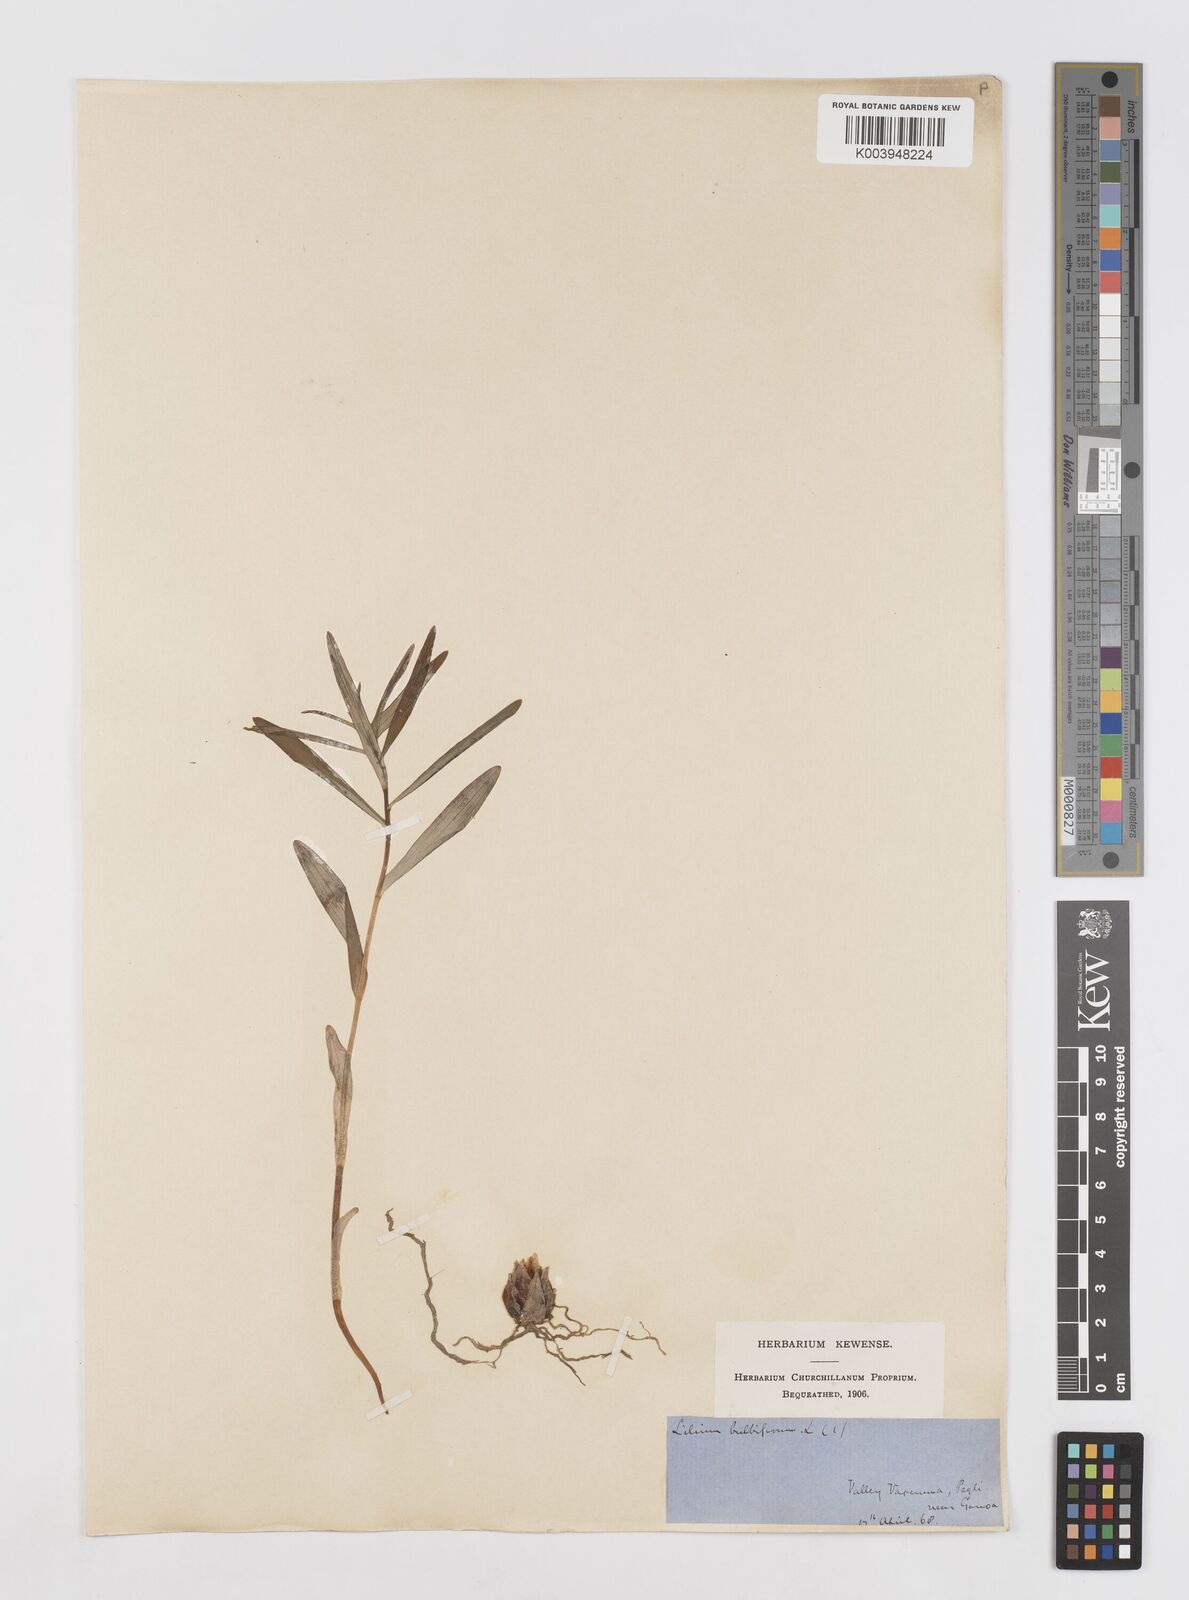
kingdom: Plantae
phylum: Tracheophyta
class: Liliopsida
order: Liliales
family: Liliaceae
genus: Lilium
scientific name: Lilium bulbiferum
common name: Orange lily
